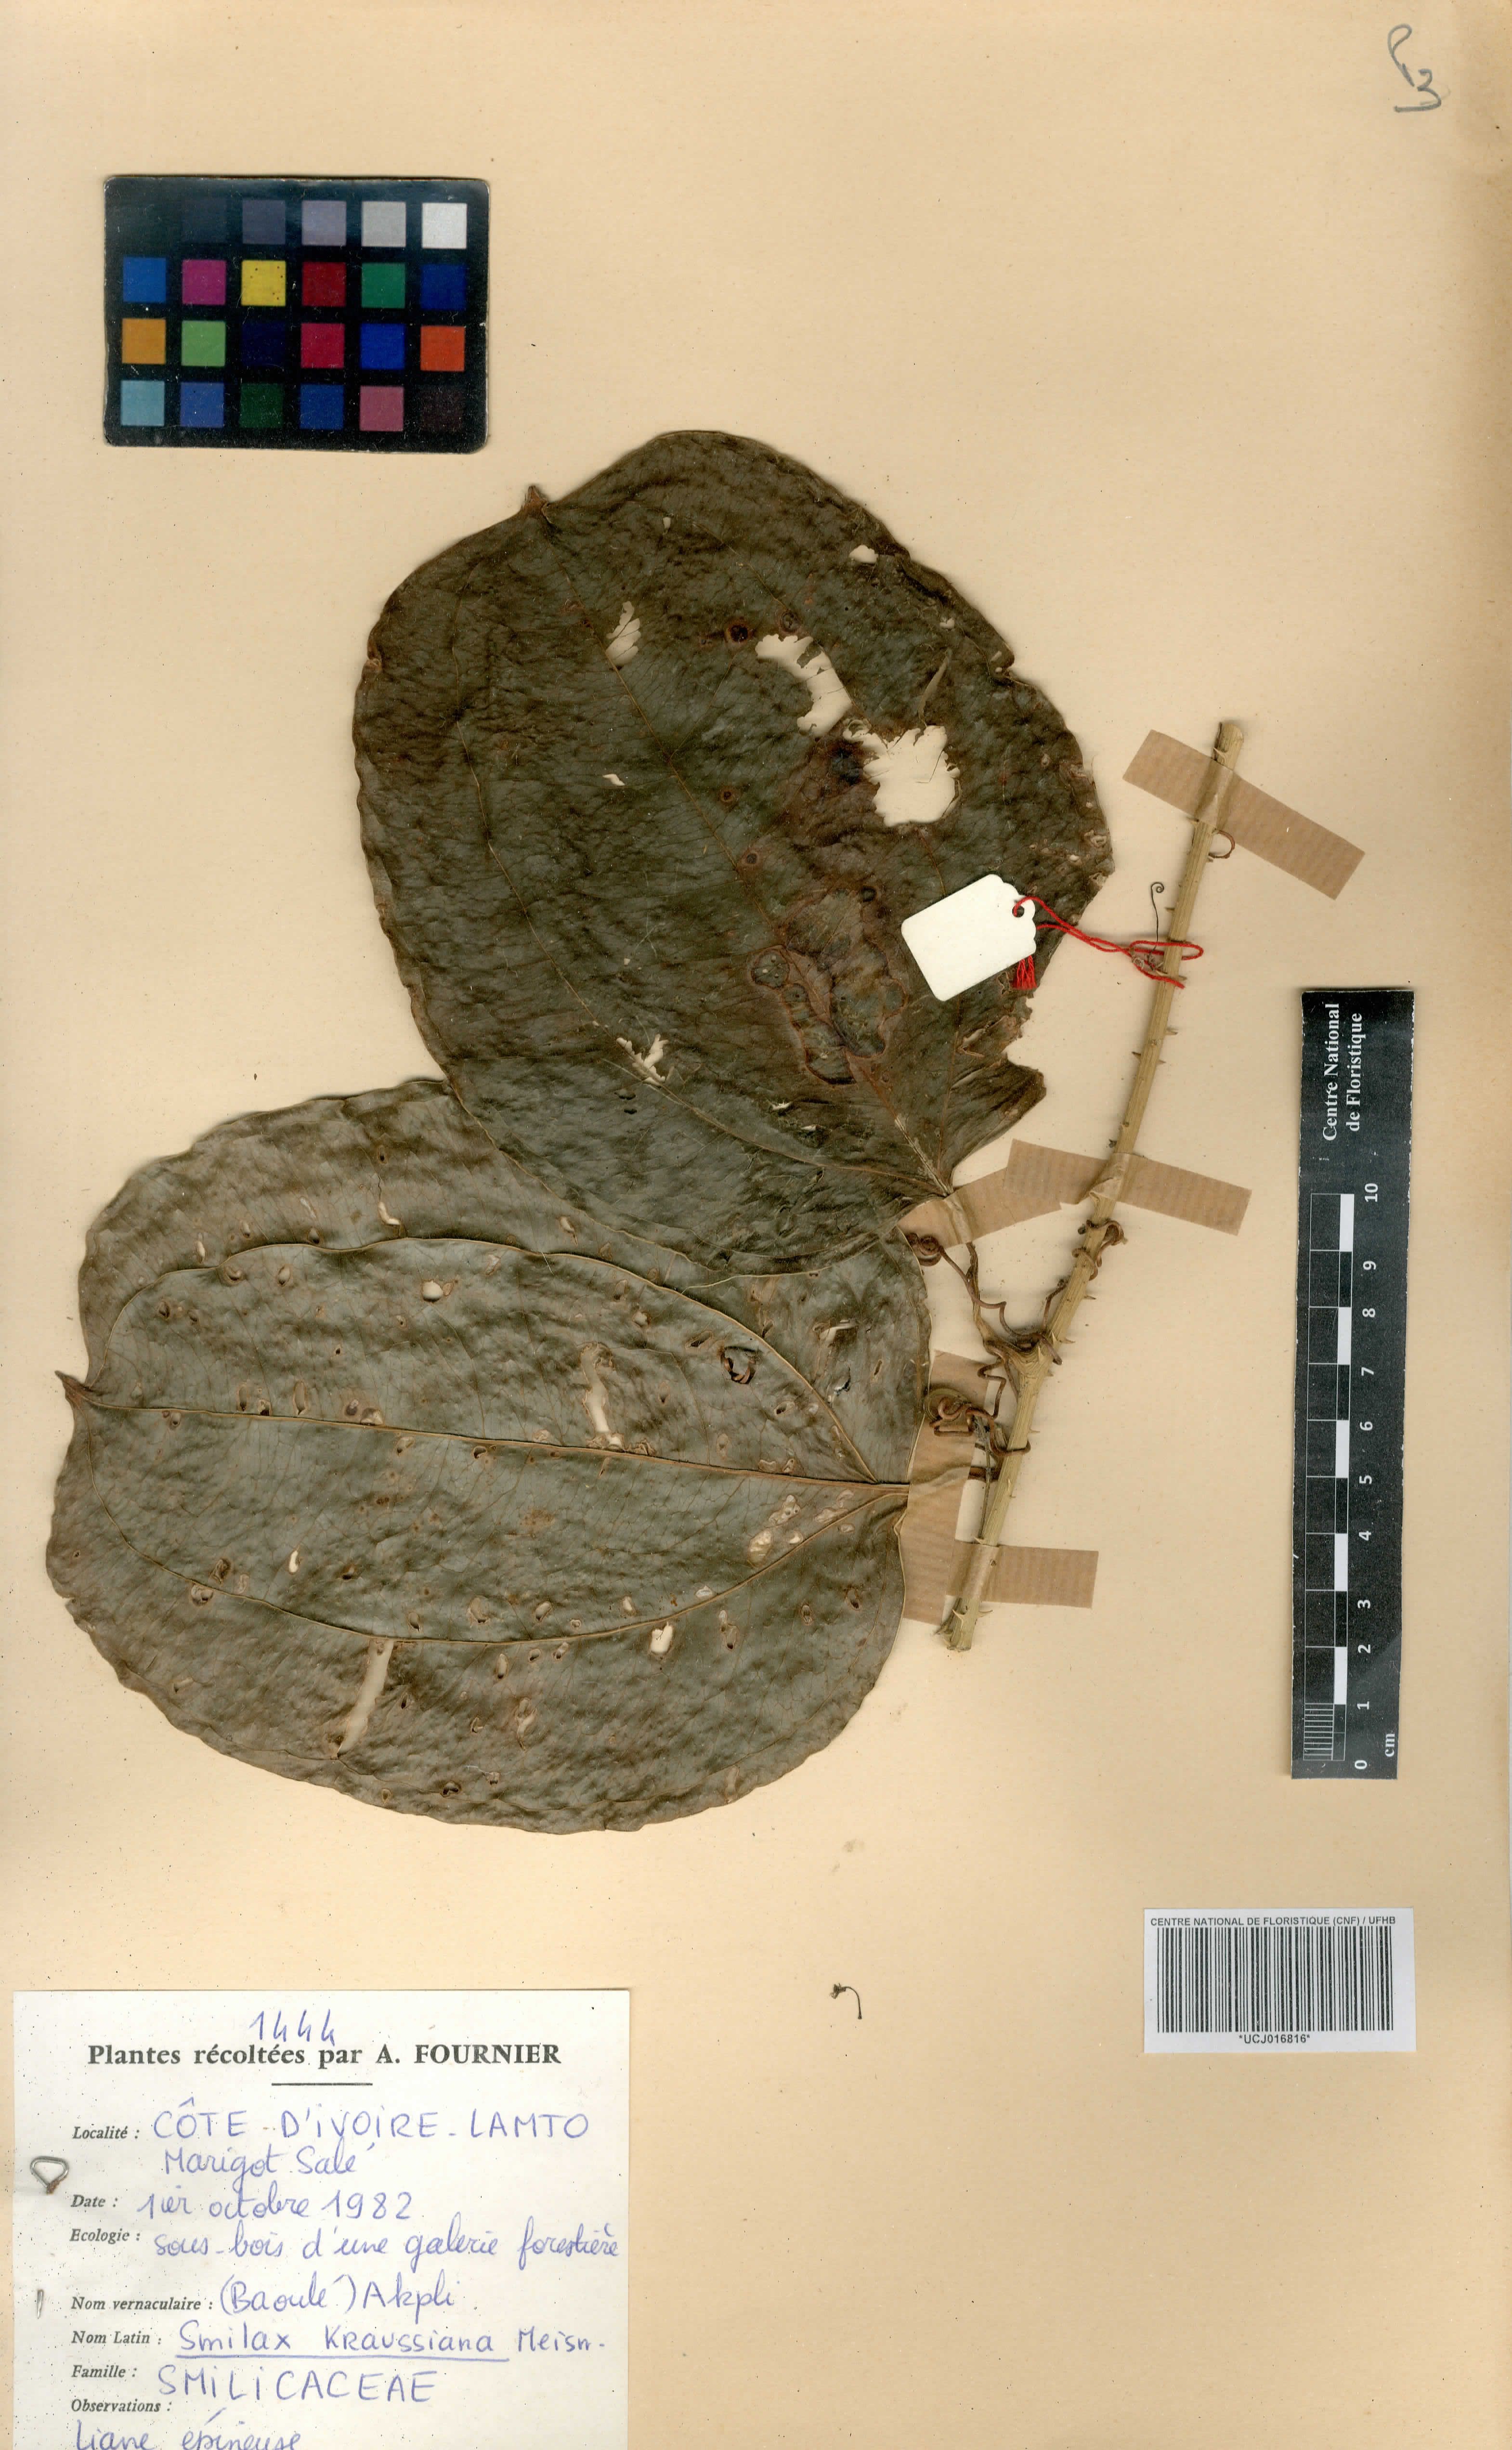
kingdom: Plantae
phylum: Tracheophyta
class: Liliopsida
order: Liliales
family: Smilacaceae
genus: Smilax
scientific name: Smilax anceps
